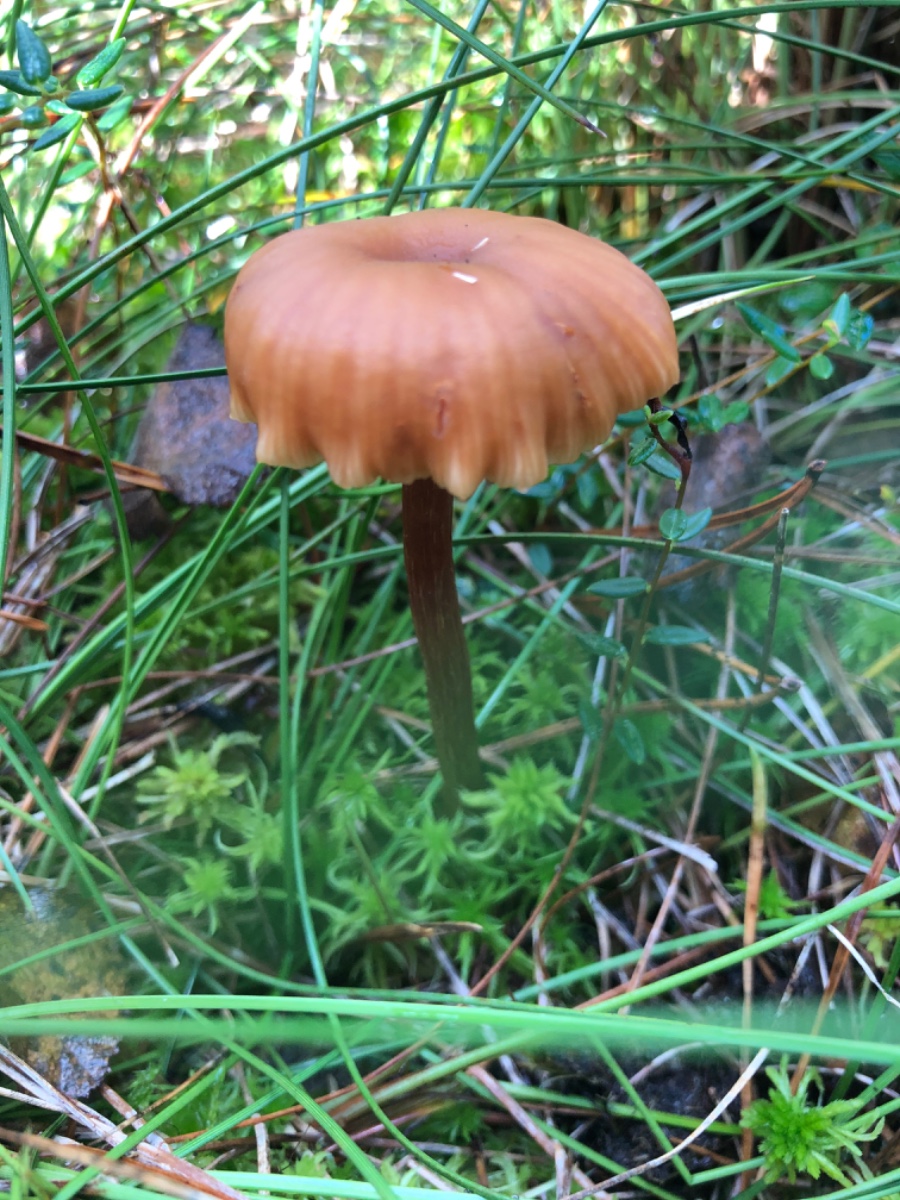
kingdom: Fungi
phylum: Basidiomycota
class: Agaricomycetes
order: Agaricales
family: Hydnangiaceae
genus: Laccaria
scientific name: Laccaria proxima
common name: stor ametysthat
